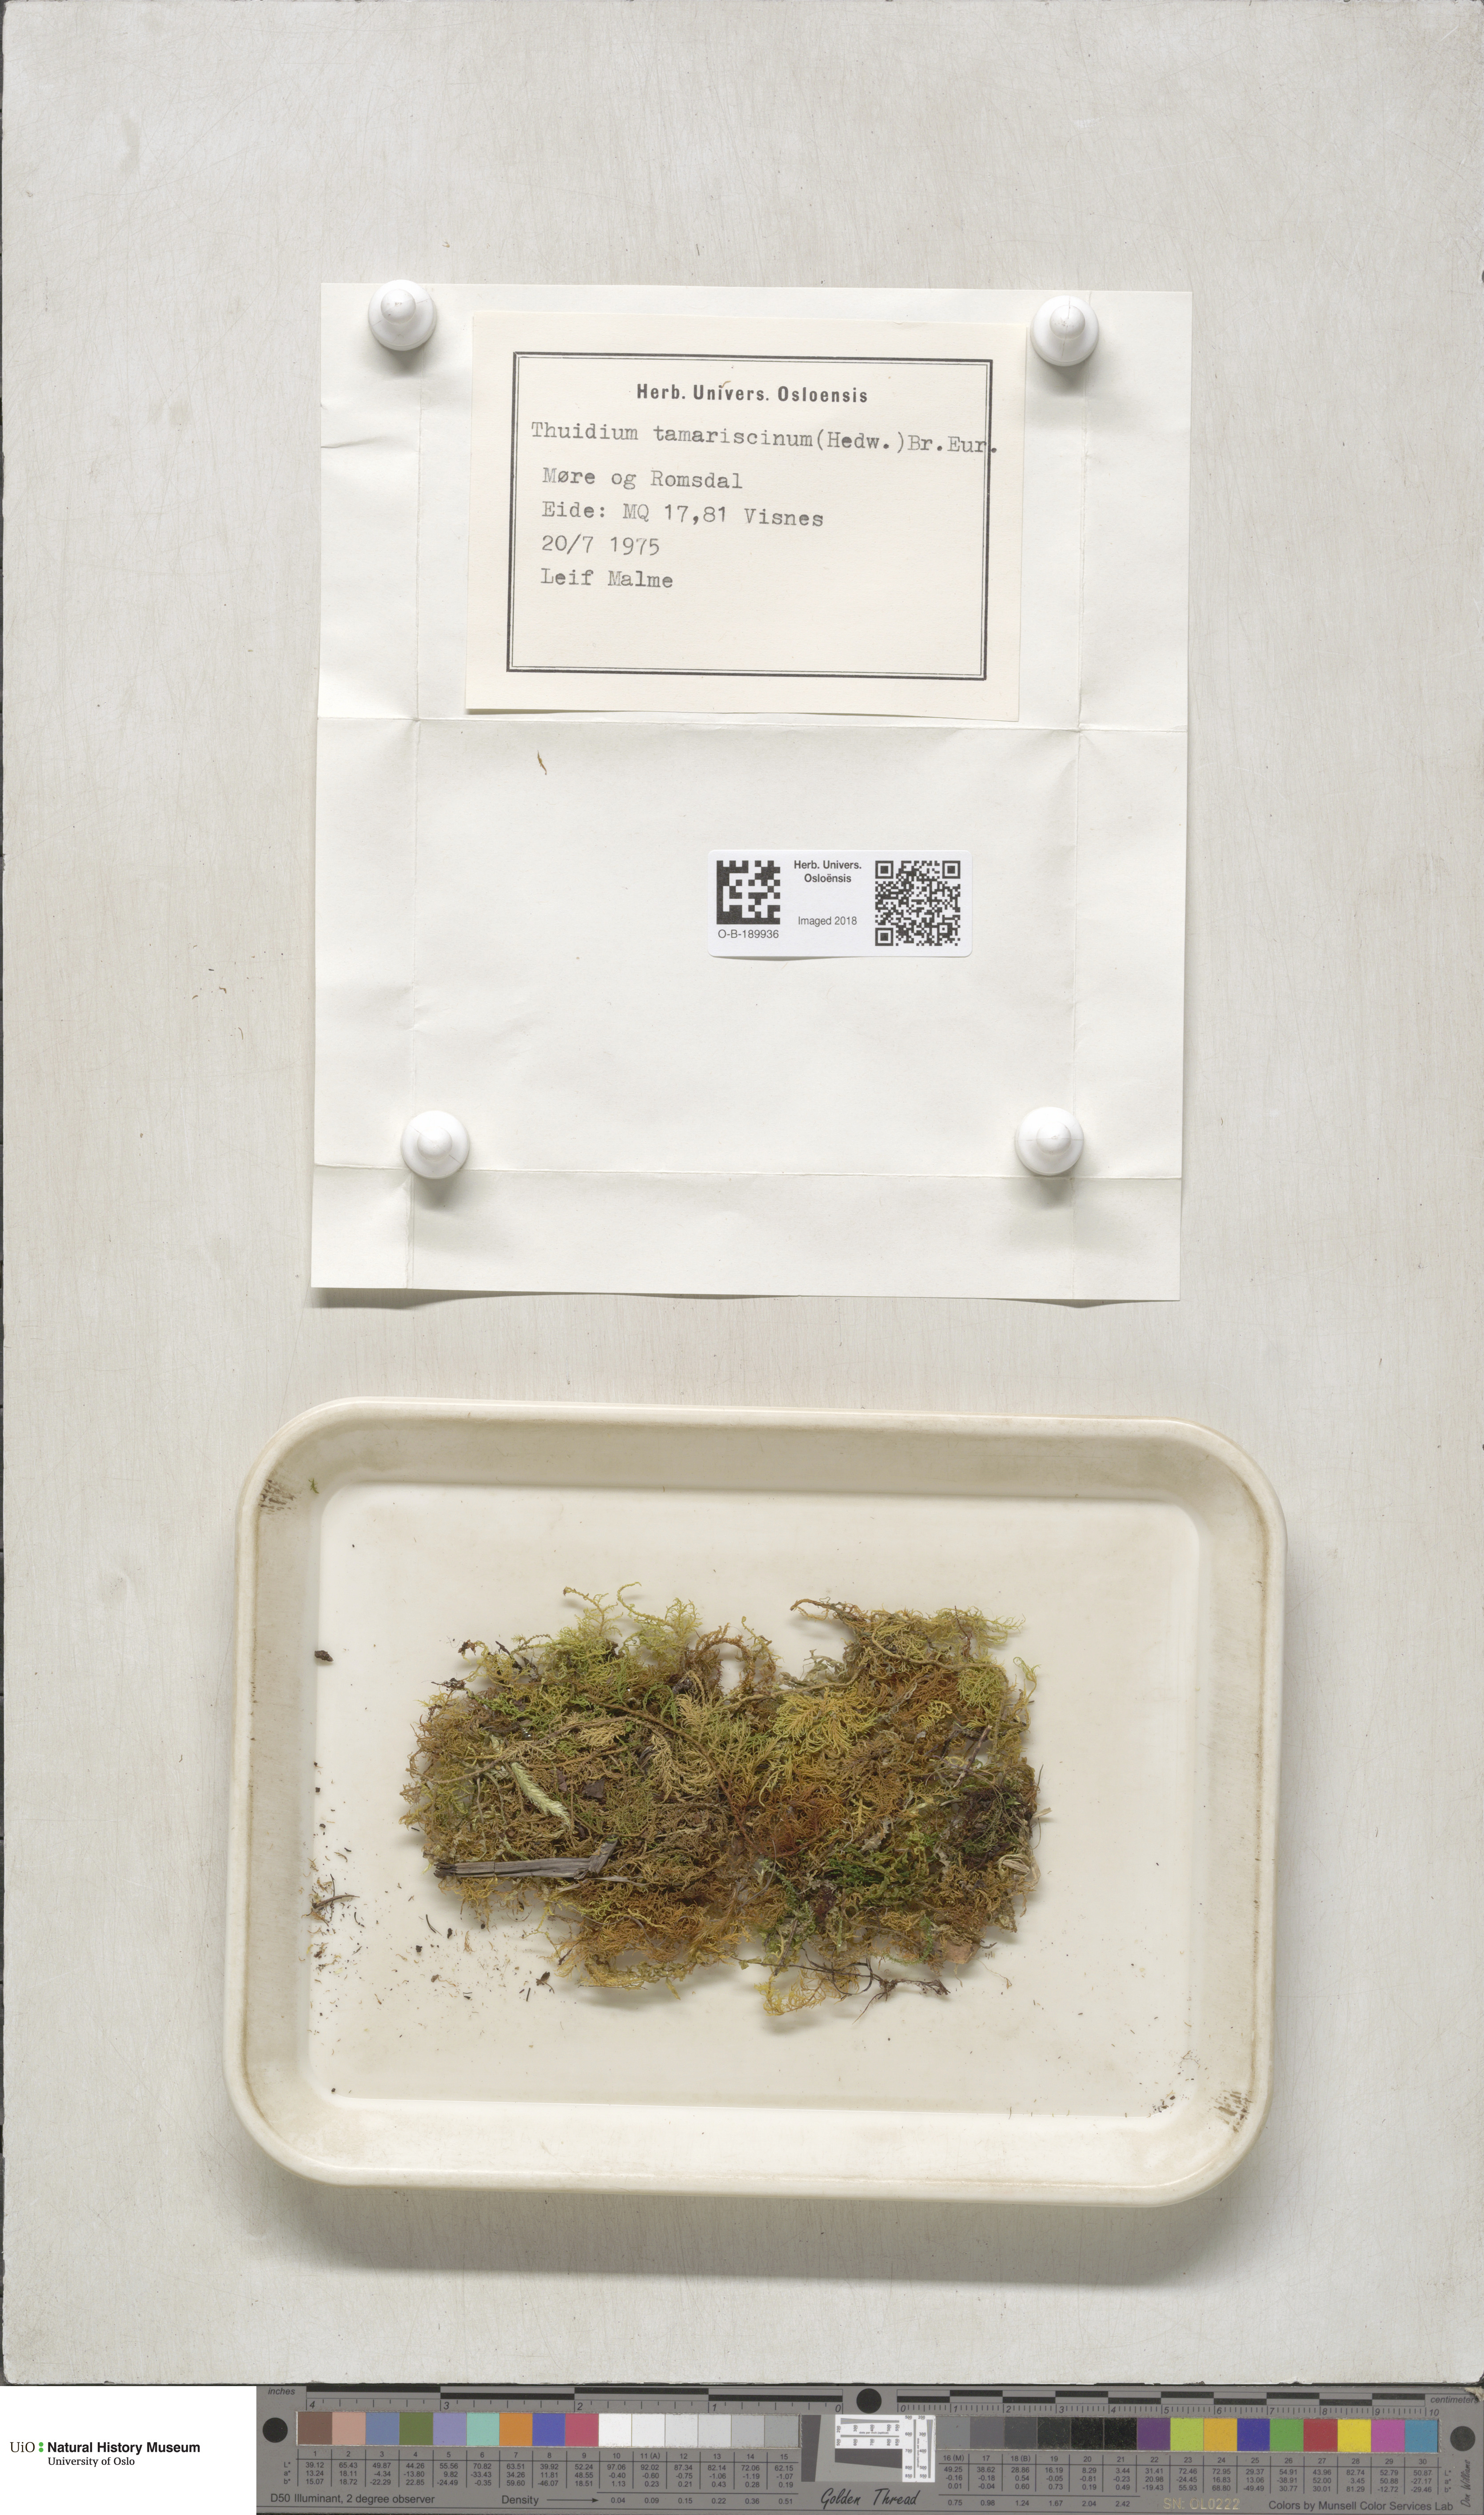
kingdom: Plantae
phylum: Bryophyta
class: Bryopsida
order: Hypnales
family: Thuidiaceae
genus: Thuidium
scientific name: Thuidium tamariscinum
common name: Common tamarisk-moss
